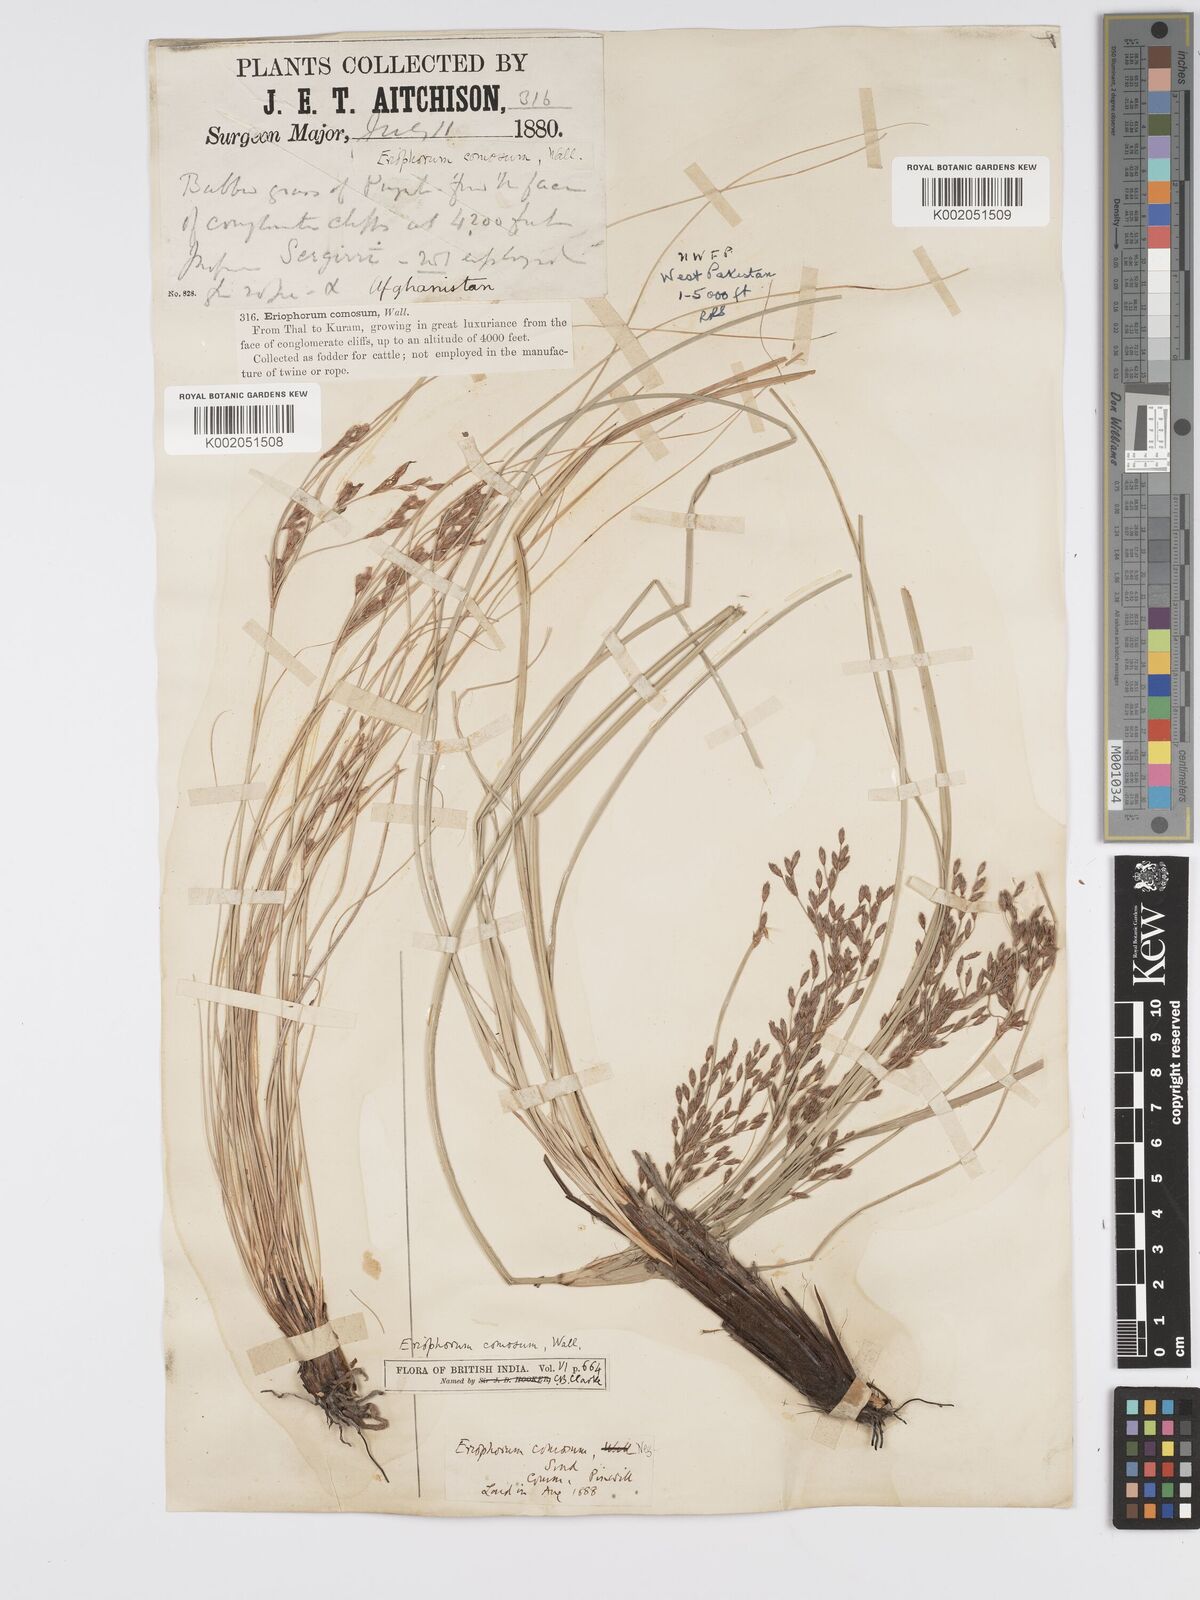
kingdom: Plantae
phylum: Tracheophyta
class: Liliopsida
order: Poales
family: Cyperaceae
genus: Erioscirpus
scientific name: Erioscirpus comosus
